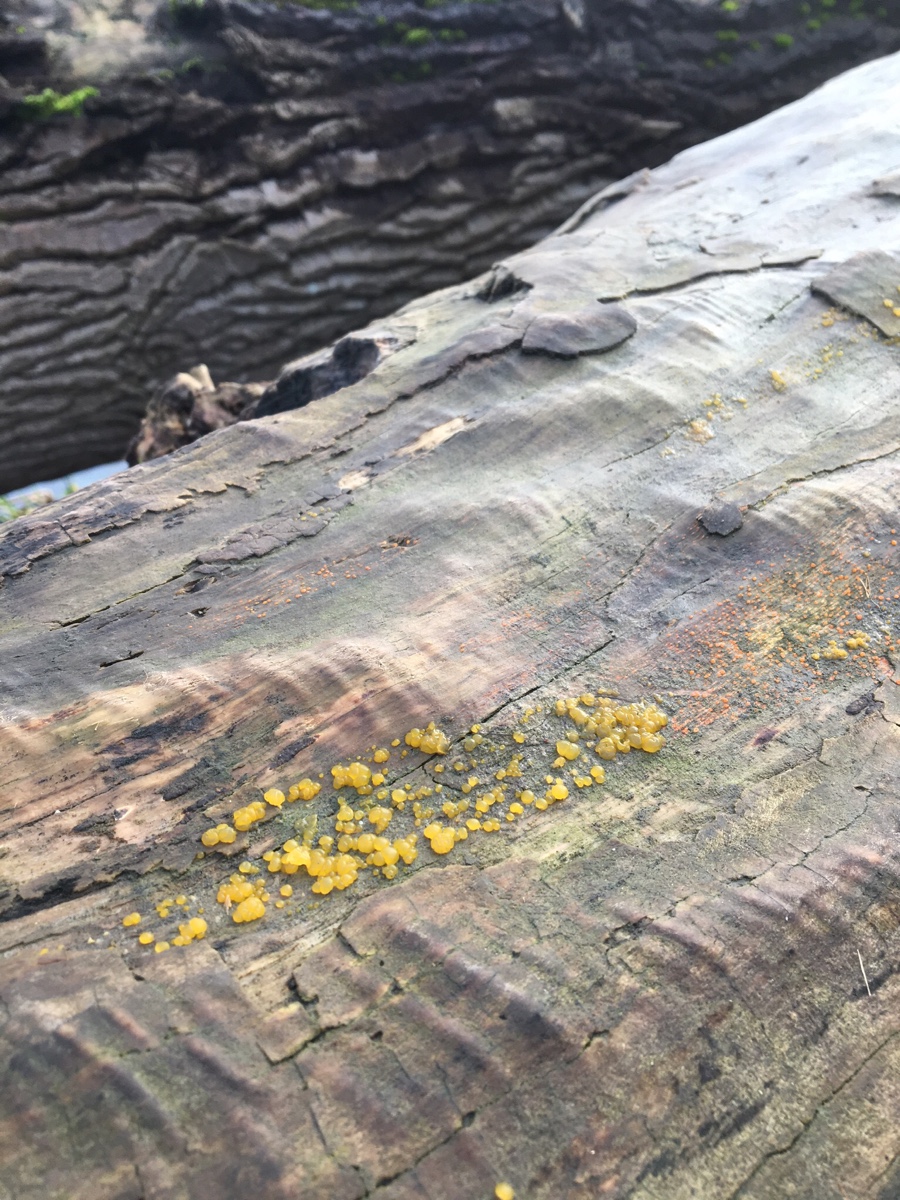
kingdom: Fungi
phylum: Basidiomycota
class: Dacrymycetes
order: Dacrymycetales
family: Dacrymycetaceae
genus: Dacrymyces
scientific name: Dacrymyces stillatus
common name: almindelig tåresvamp
